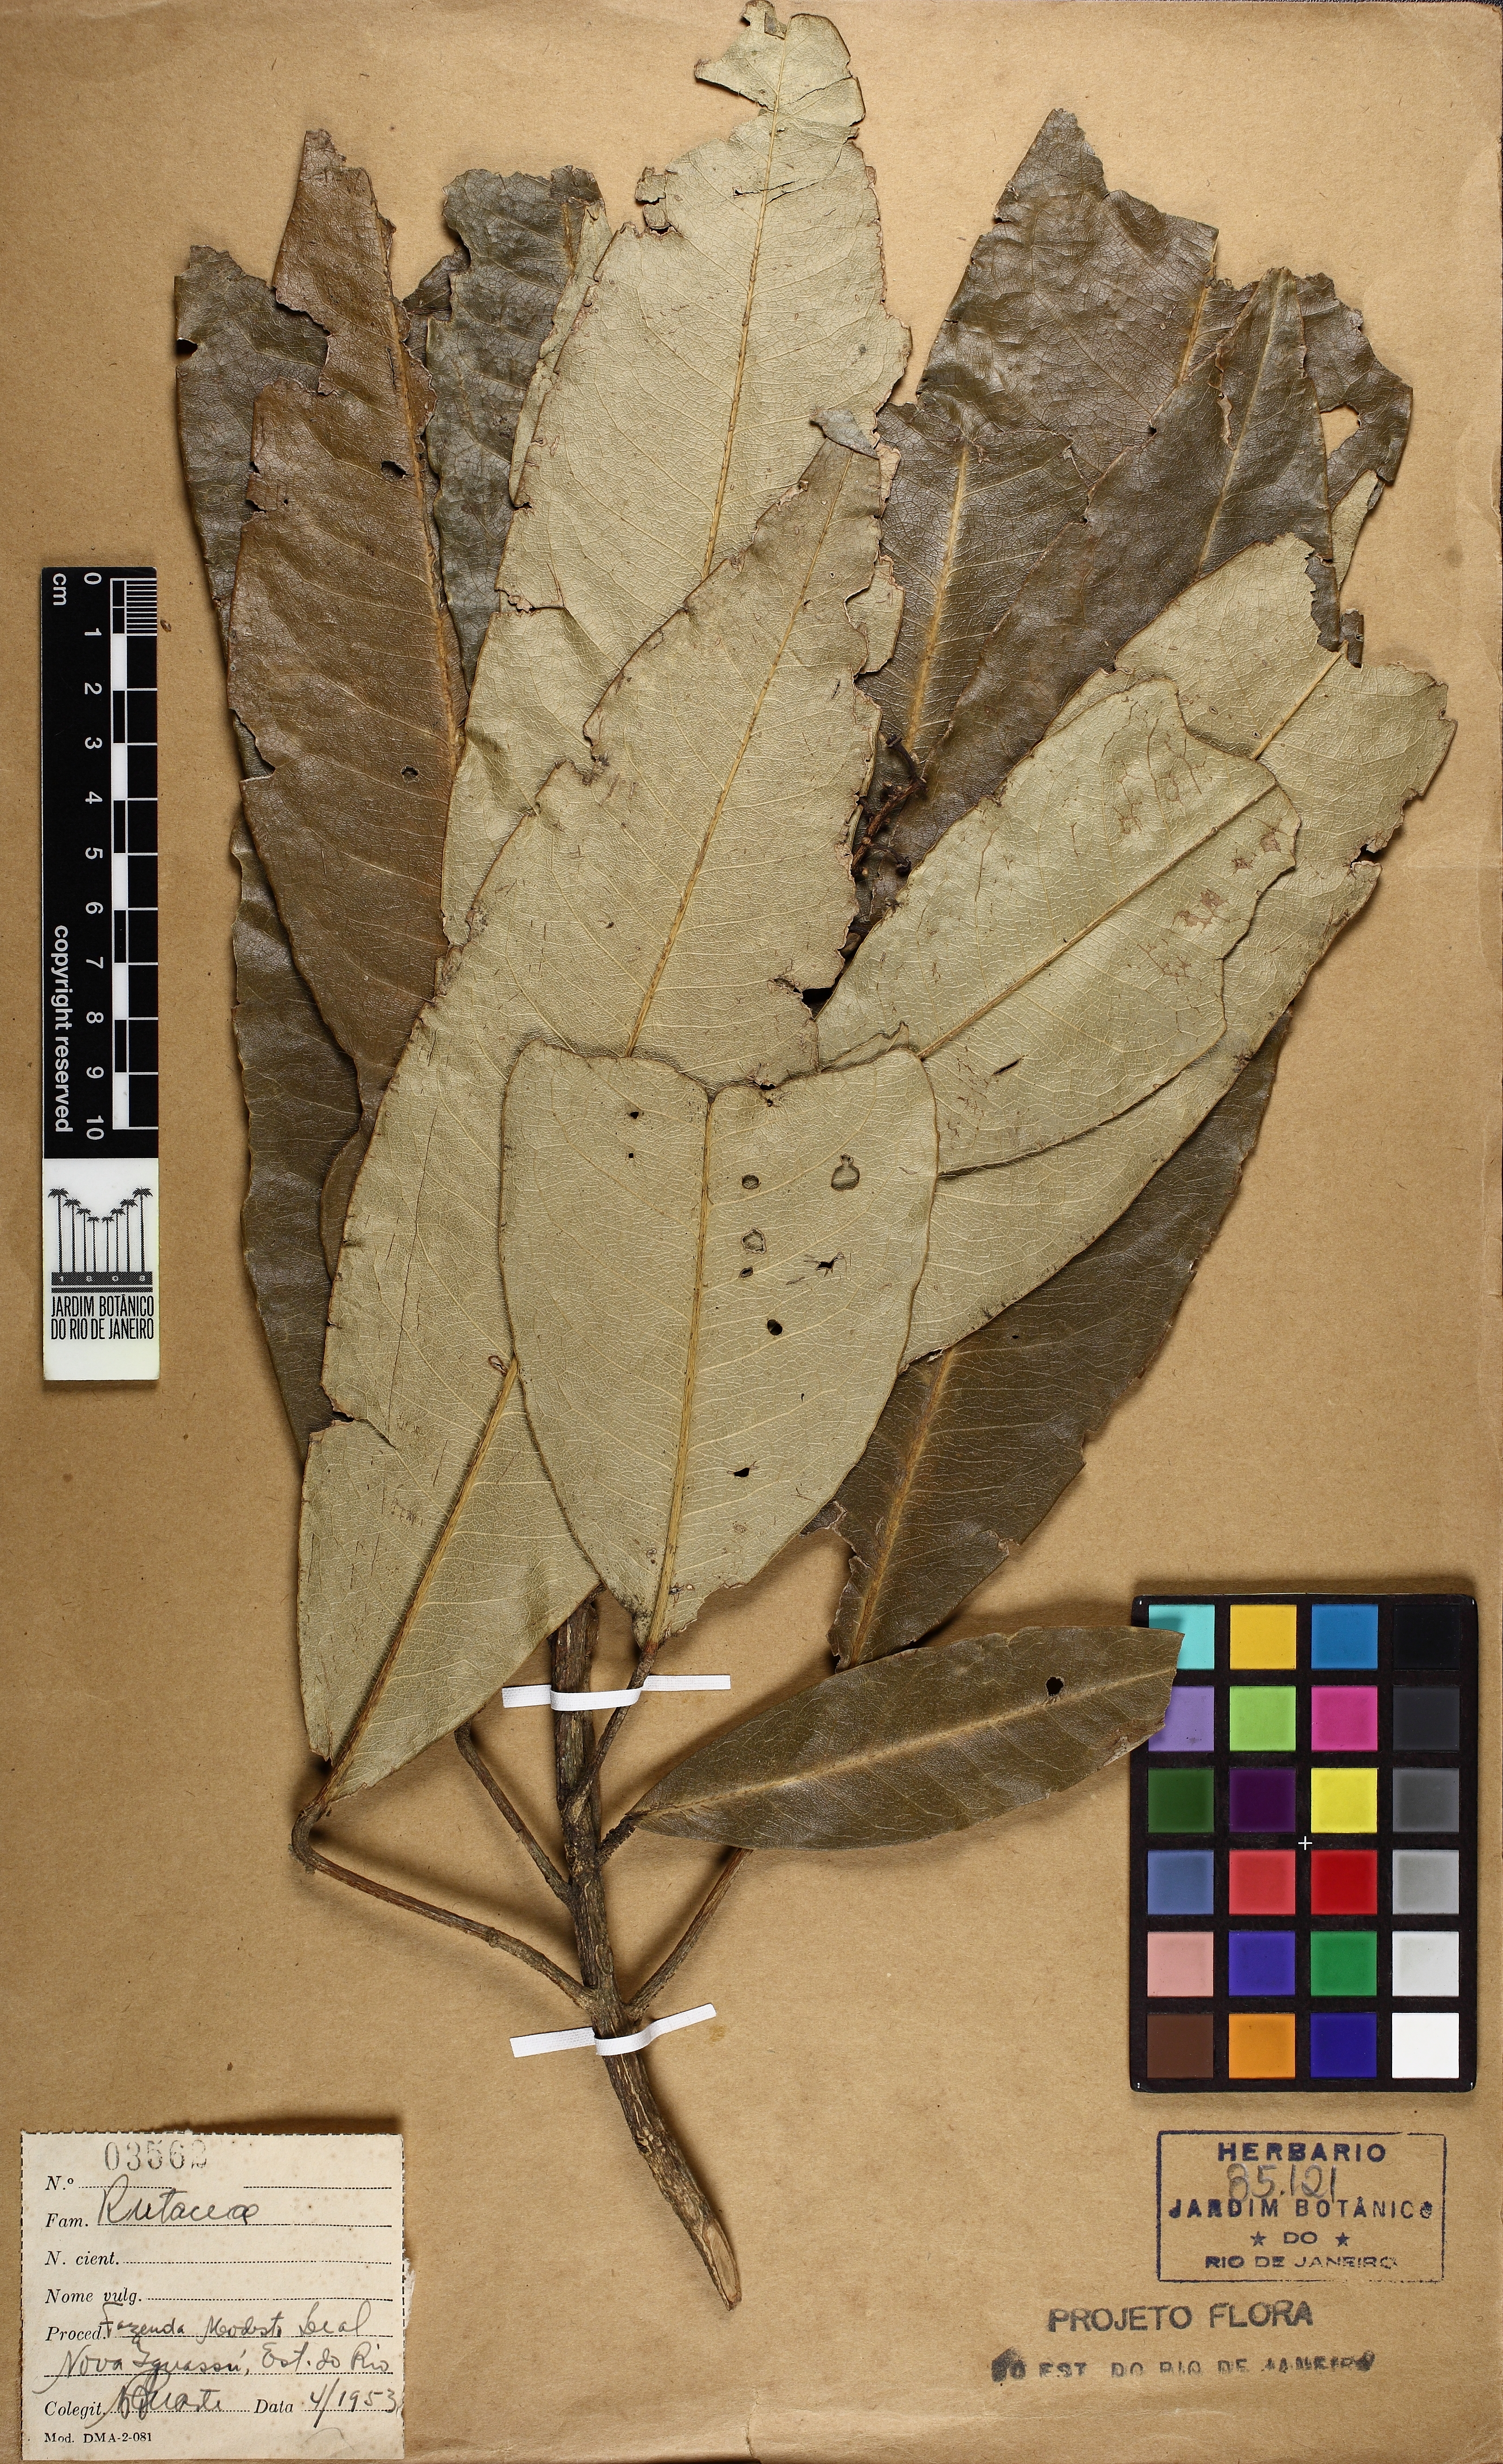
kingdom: Plantae
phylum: Tracheophyta
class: Magnoliopsida
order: Sapindales
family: Rutaceae
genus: Conchocarpus
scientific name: Conchocarpus ruber
